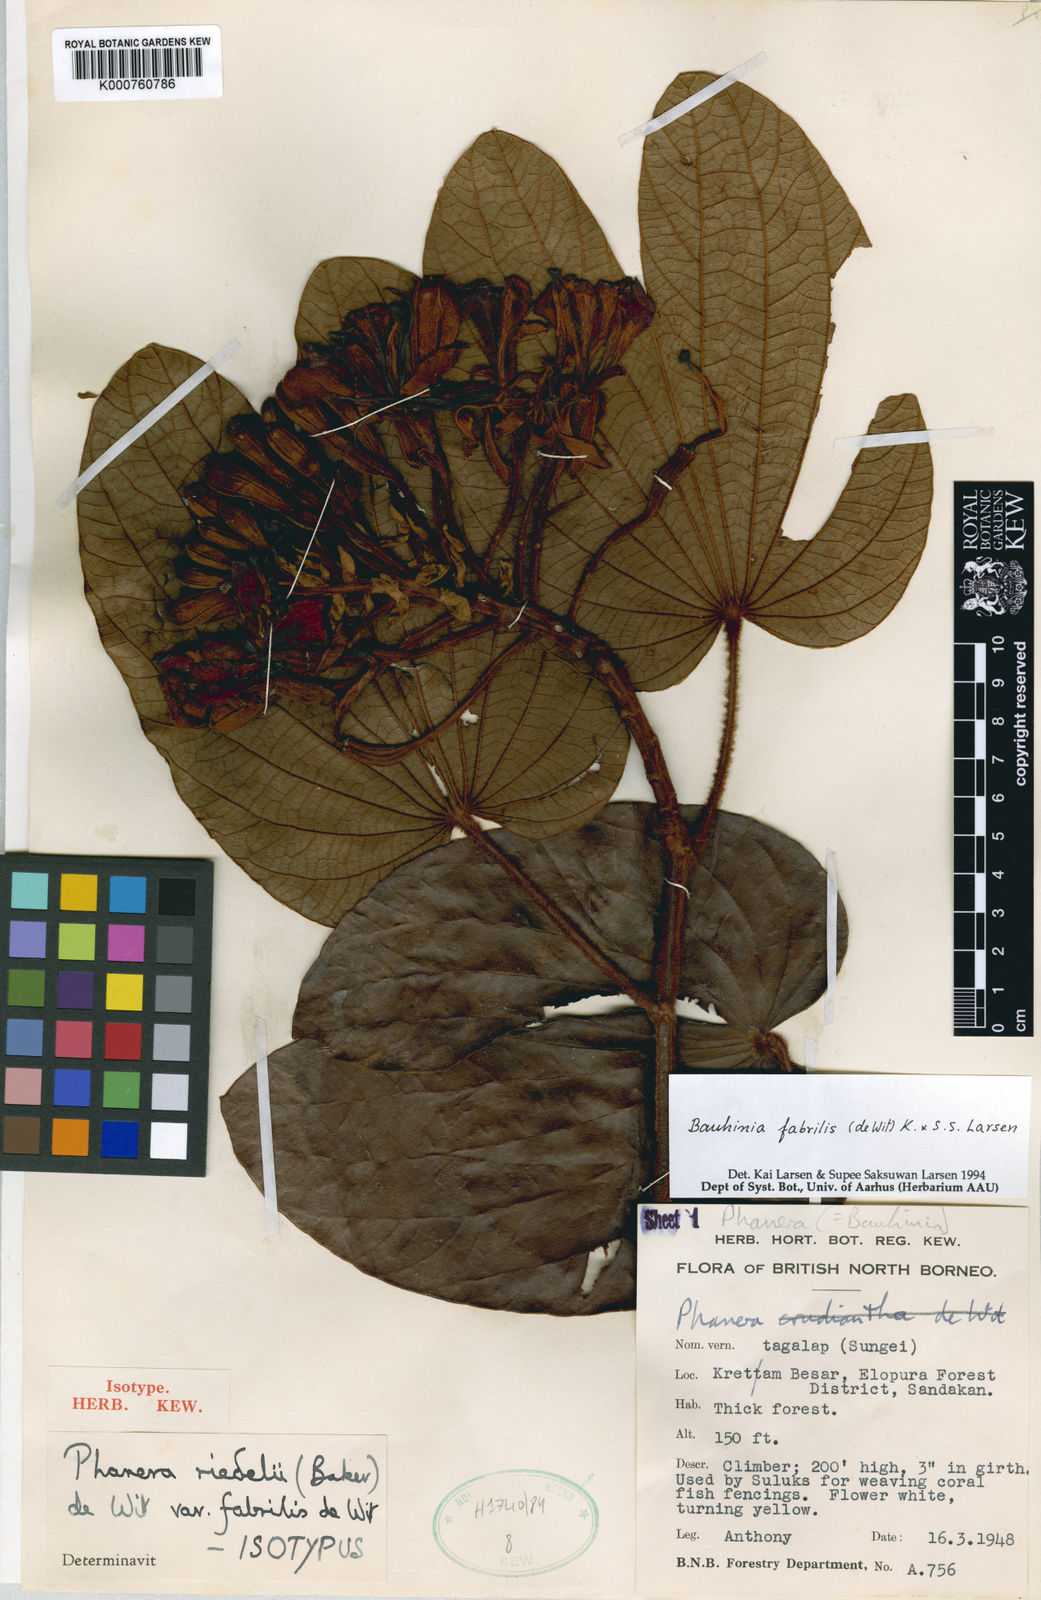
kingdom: Plantae
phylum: Tracheophyta
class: Magnoliopsida
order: Fabales
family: Fabaceae
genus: Phanera
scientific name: Phanera fabrilis
